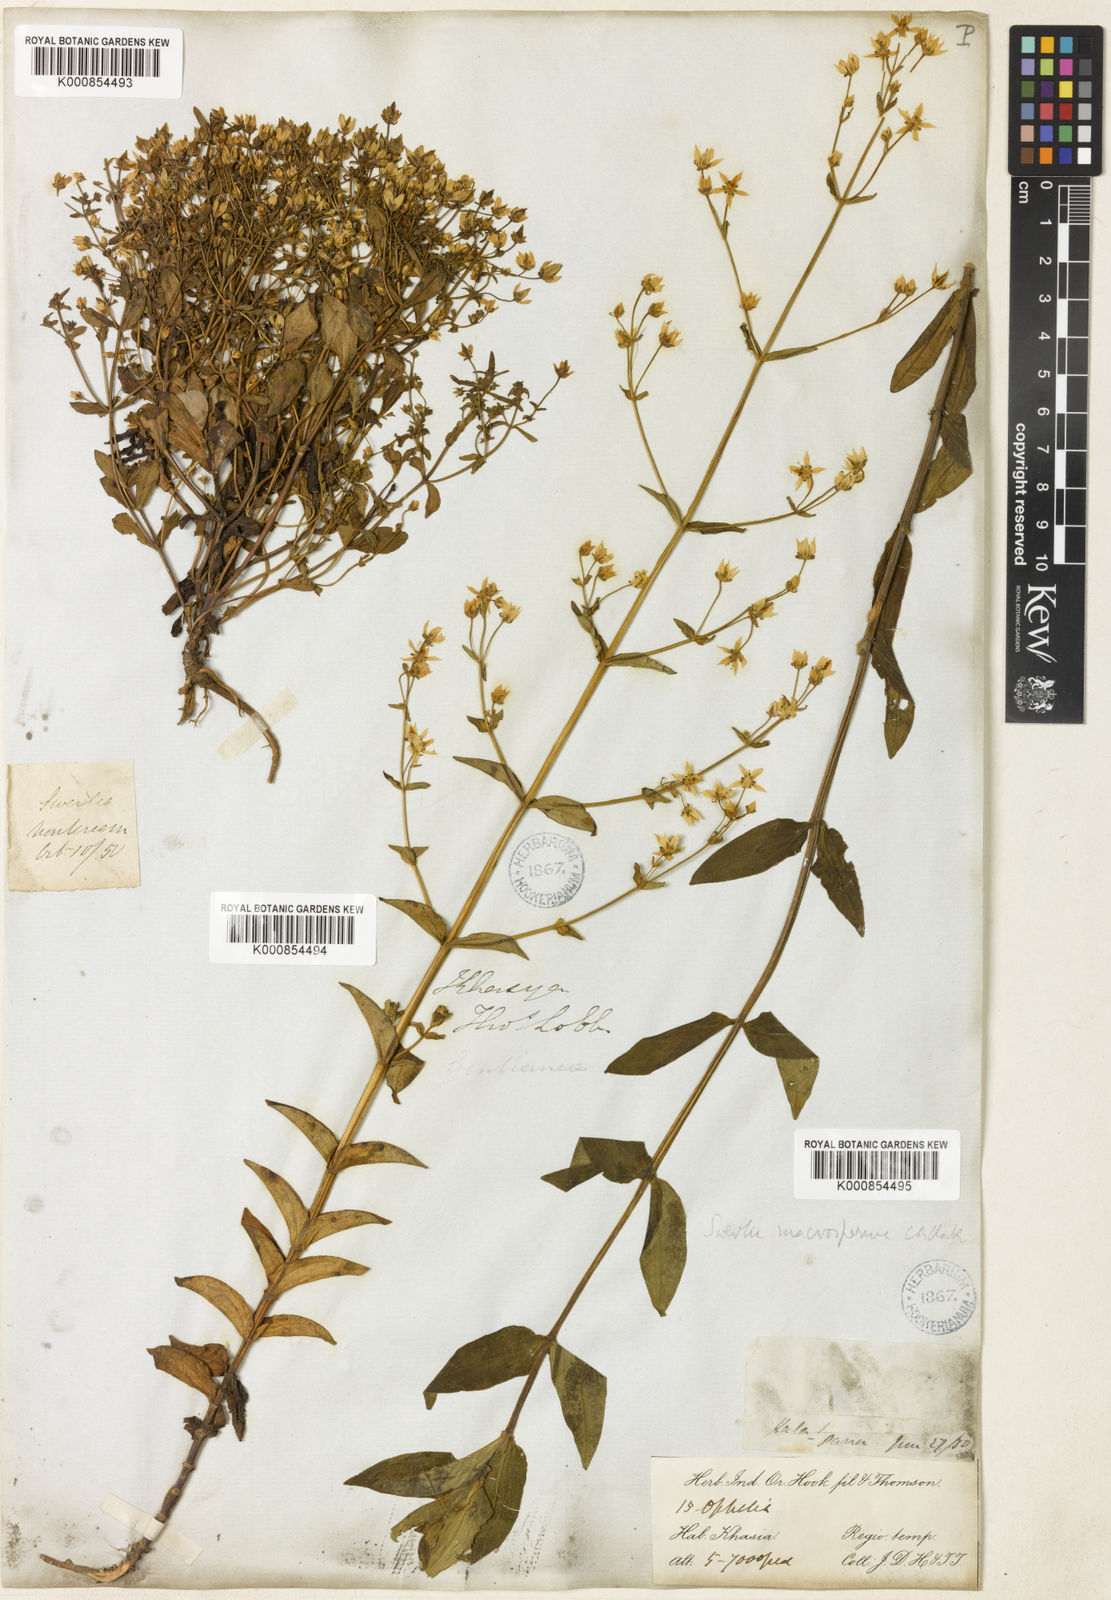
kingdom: Plantae
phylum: Tracheophyta
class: Magnoliopsida
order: Gentianales
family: Gentianaceae
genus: Swertia
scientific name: Swertia macrosperma
